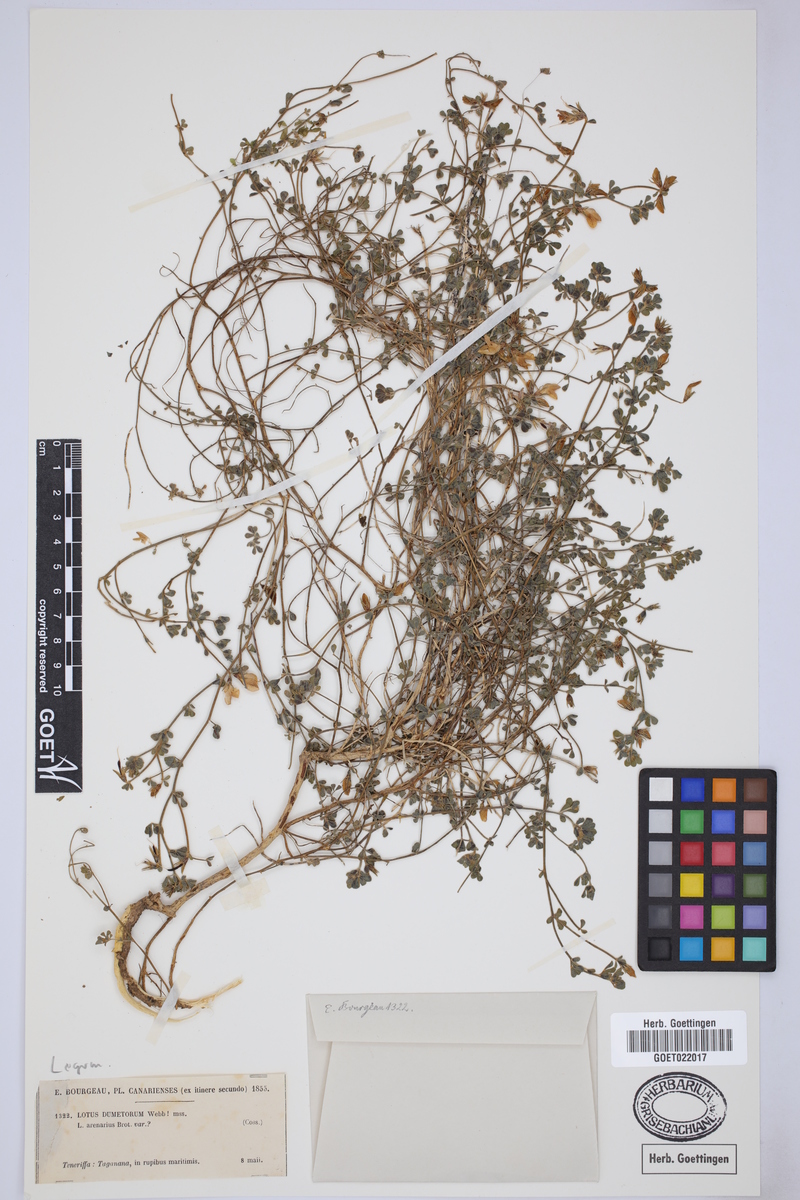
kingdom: Plantae
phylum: Tracheophyta
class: Magnoliopsida
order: Fabales
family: Fabaceae
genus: Lotus
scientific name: Lotus dumetorum
